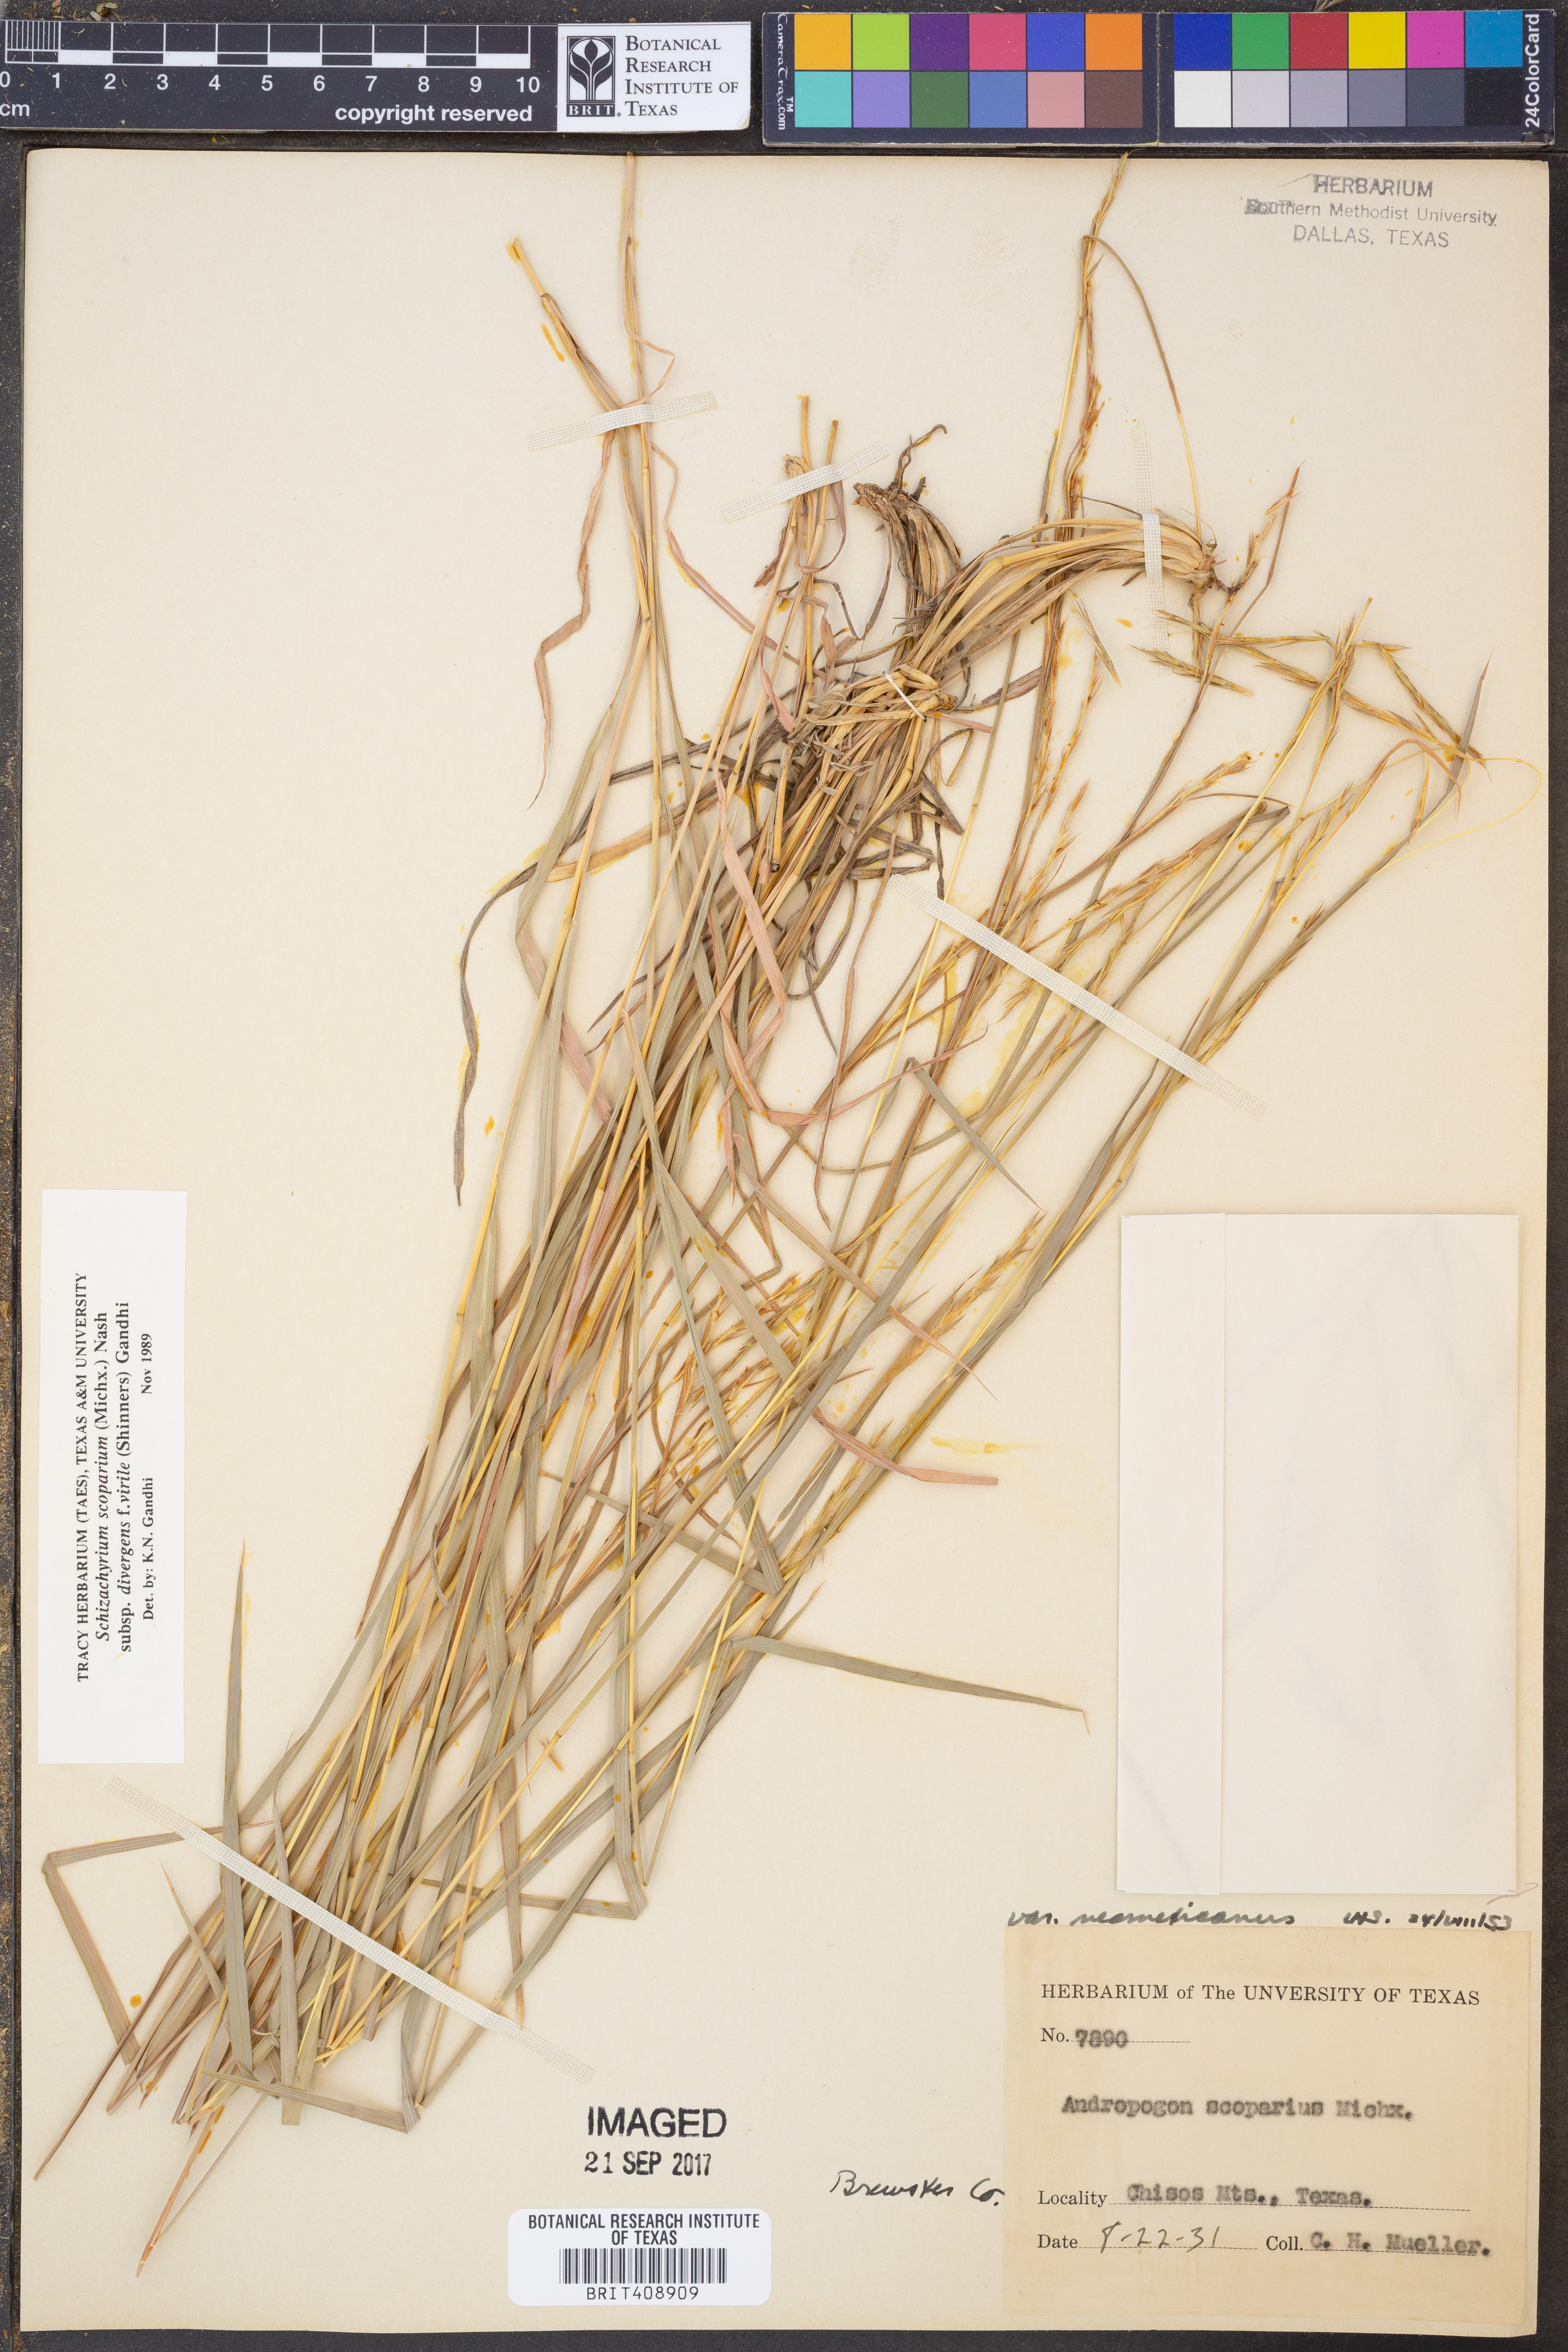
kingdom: Plantae
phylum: Tracheophyta
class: Liliopsida
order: Poales
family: Poaceae
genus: Schizachyrium
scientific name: Schizachyrium scoparium
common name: Little bluestem
